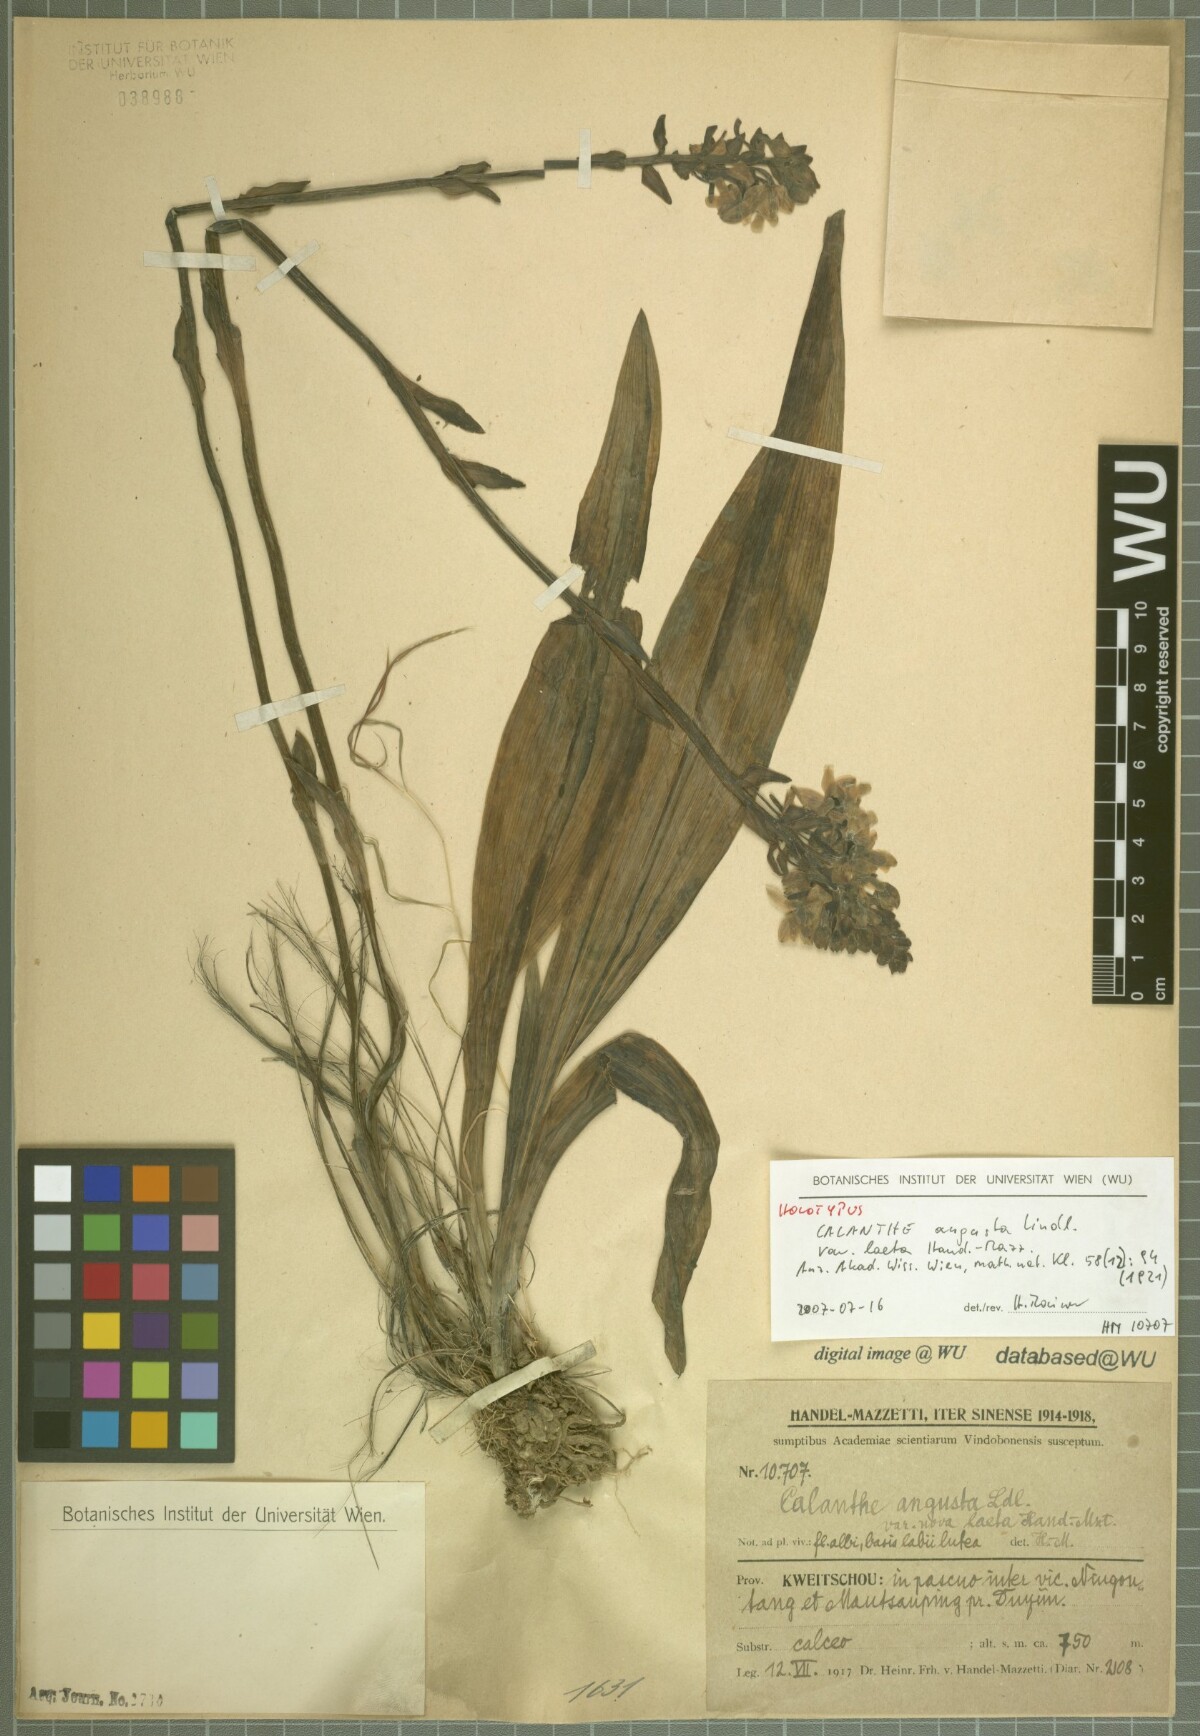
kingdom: Plantae
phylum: Tracheophyta
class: Liliopsida
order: Asparagales
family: Orchidaceae
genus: Calanthe
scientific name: Calanthe odora
